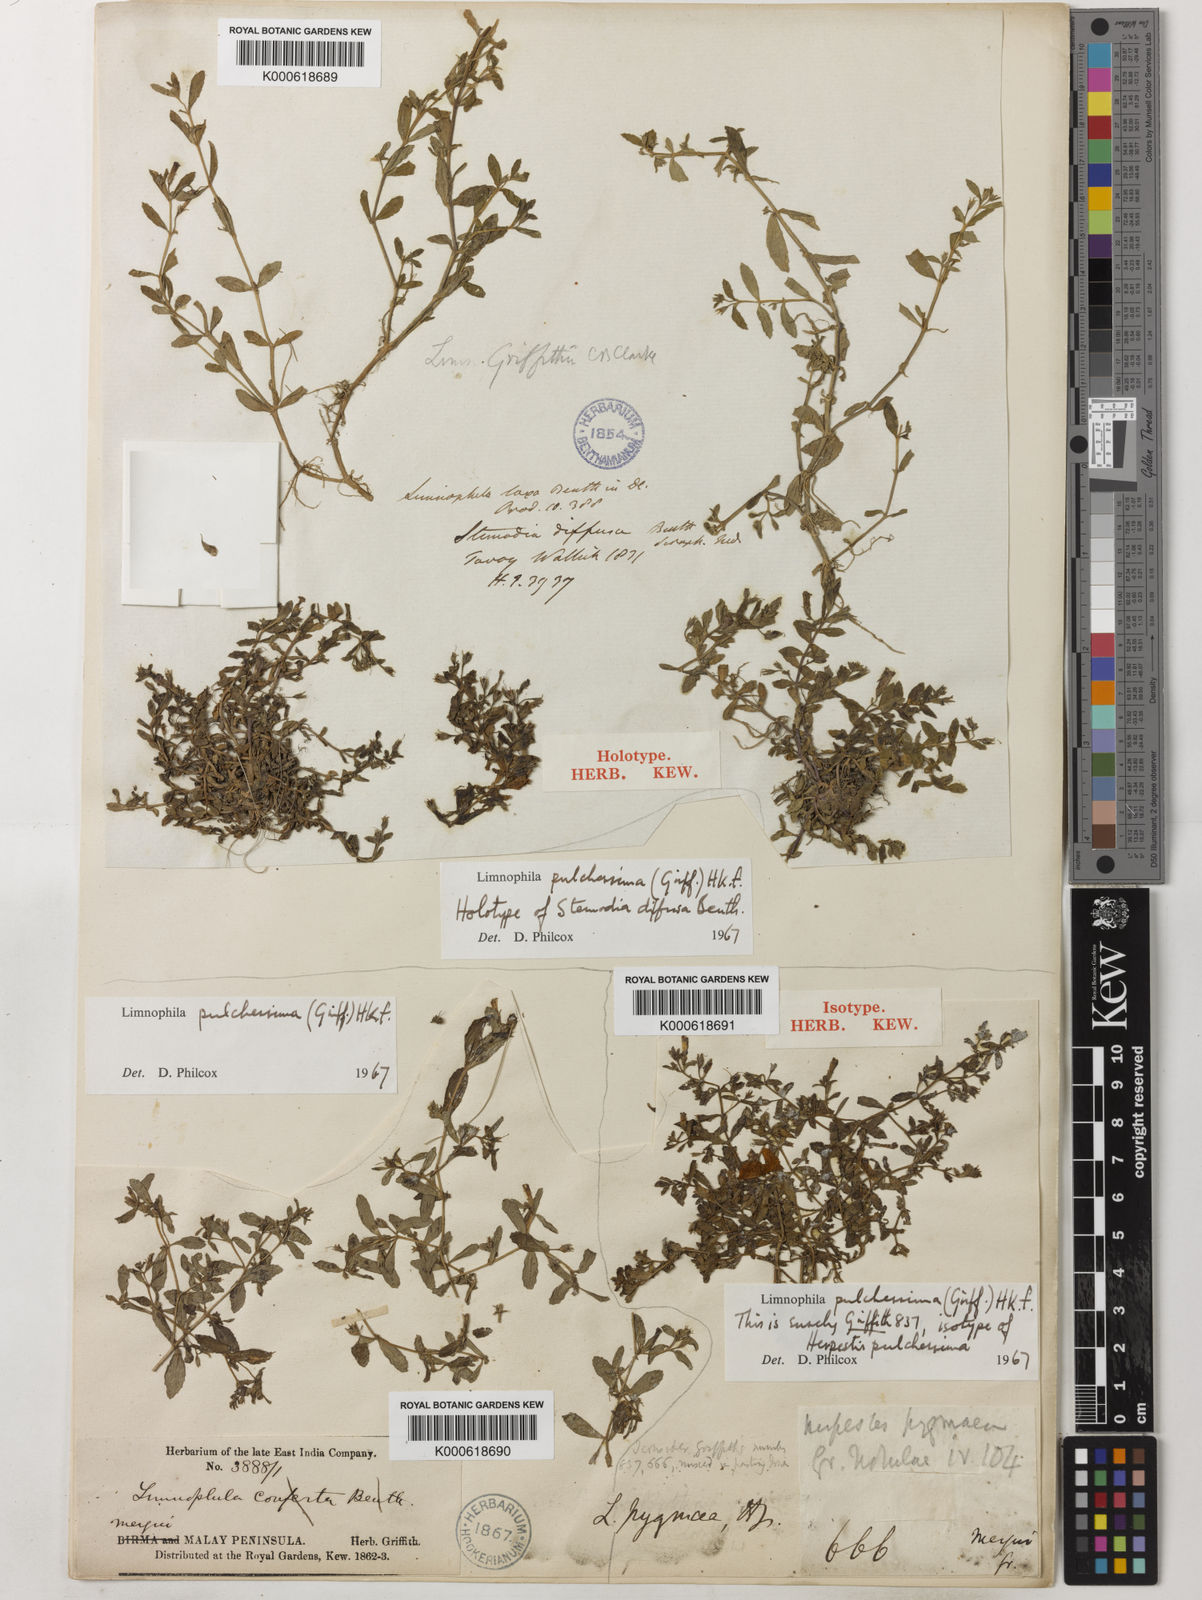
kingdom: Plantae
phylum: Tracheophyta
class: Magnoliopsida
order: Lamiales
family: Plantaginaceae
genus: Limnophila
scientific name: Limnophila pulcherrima
